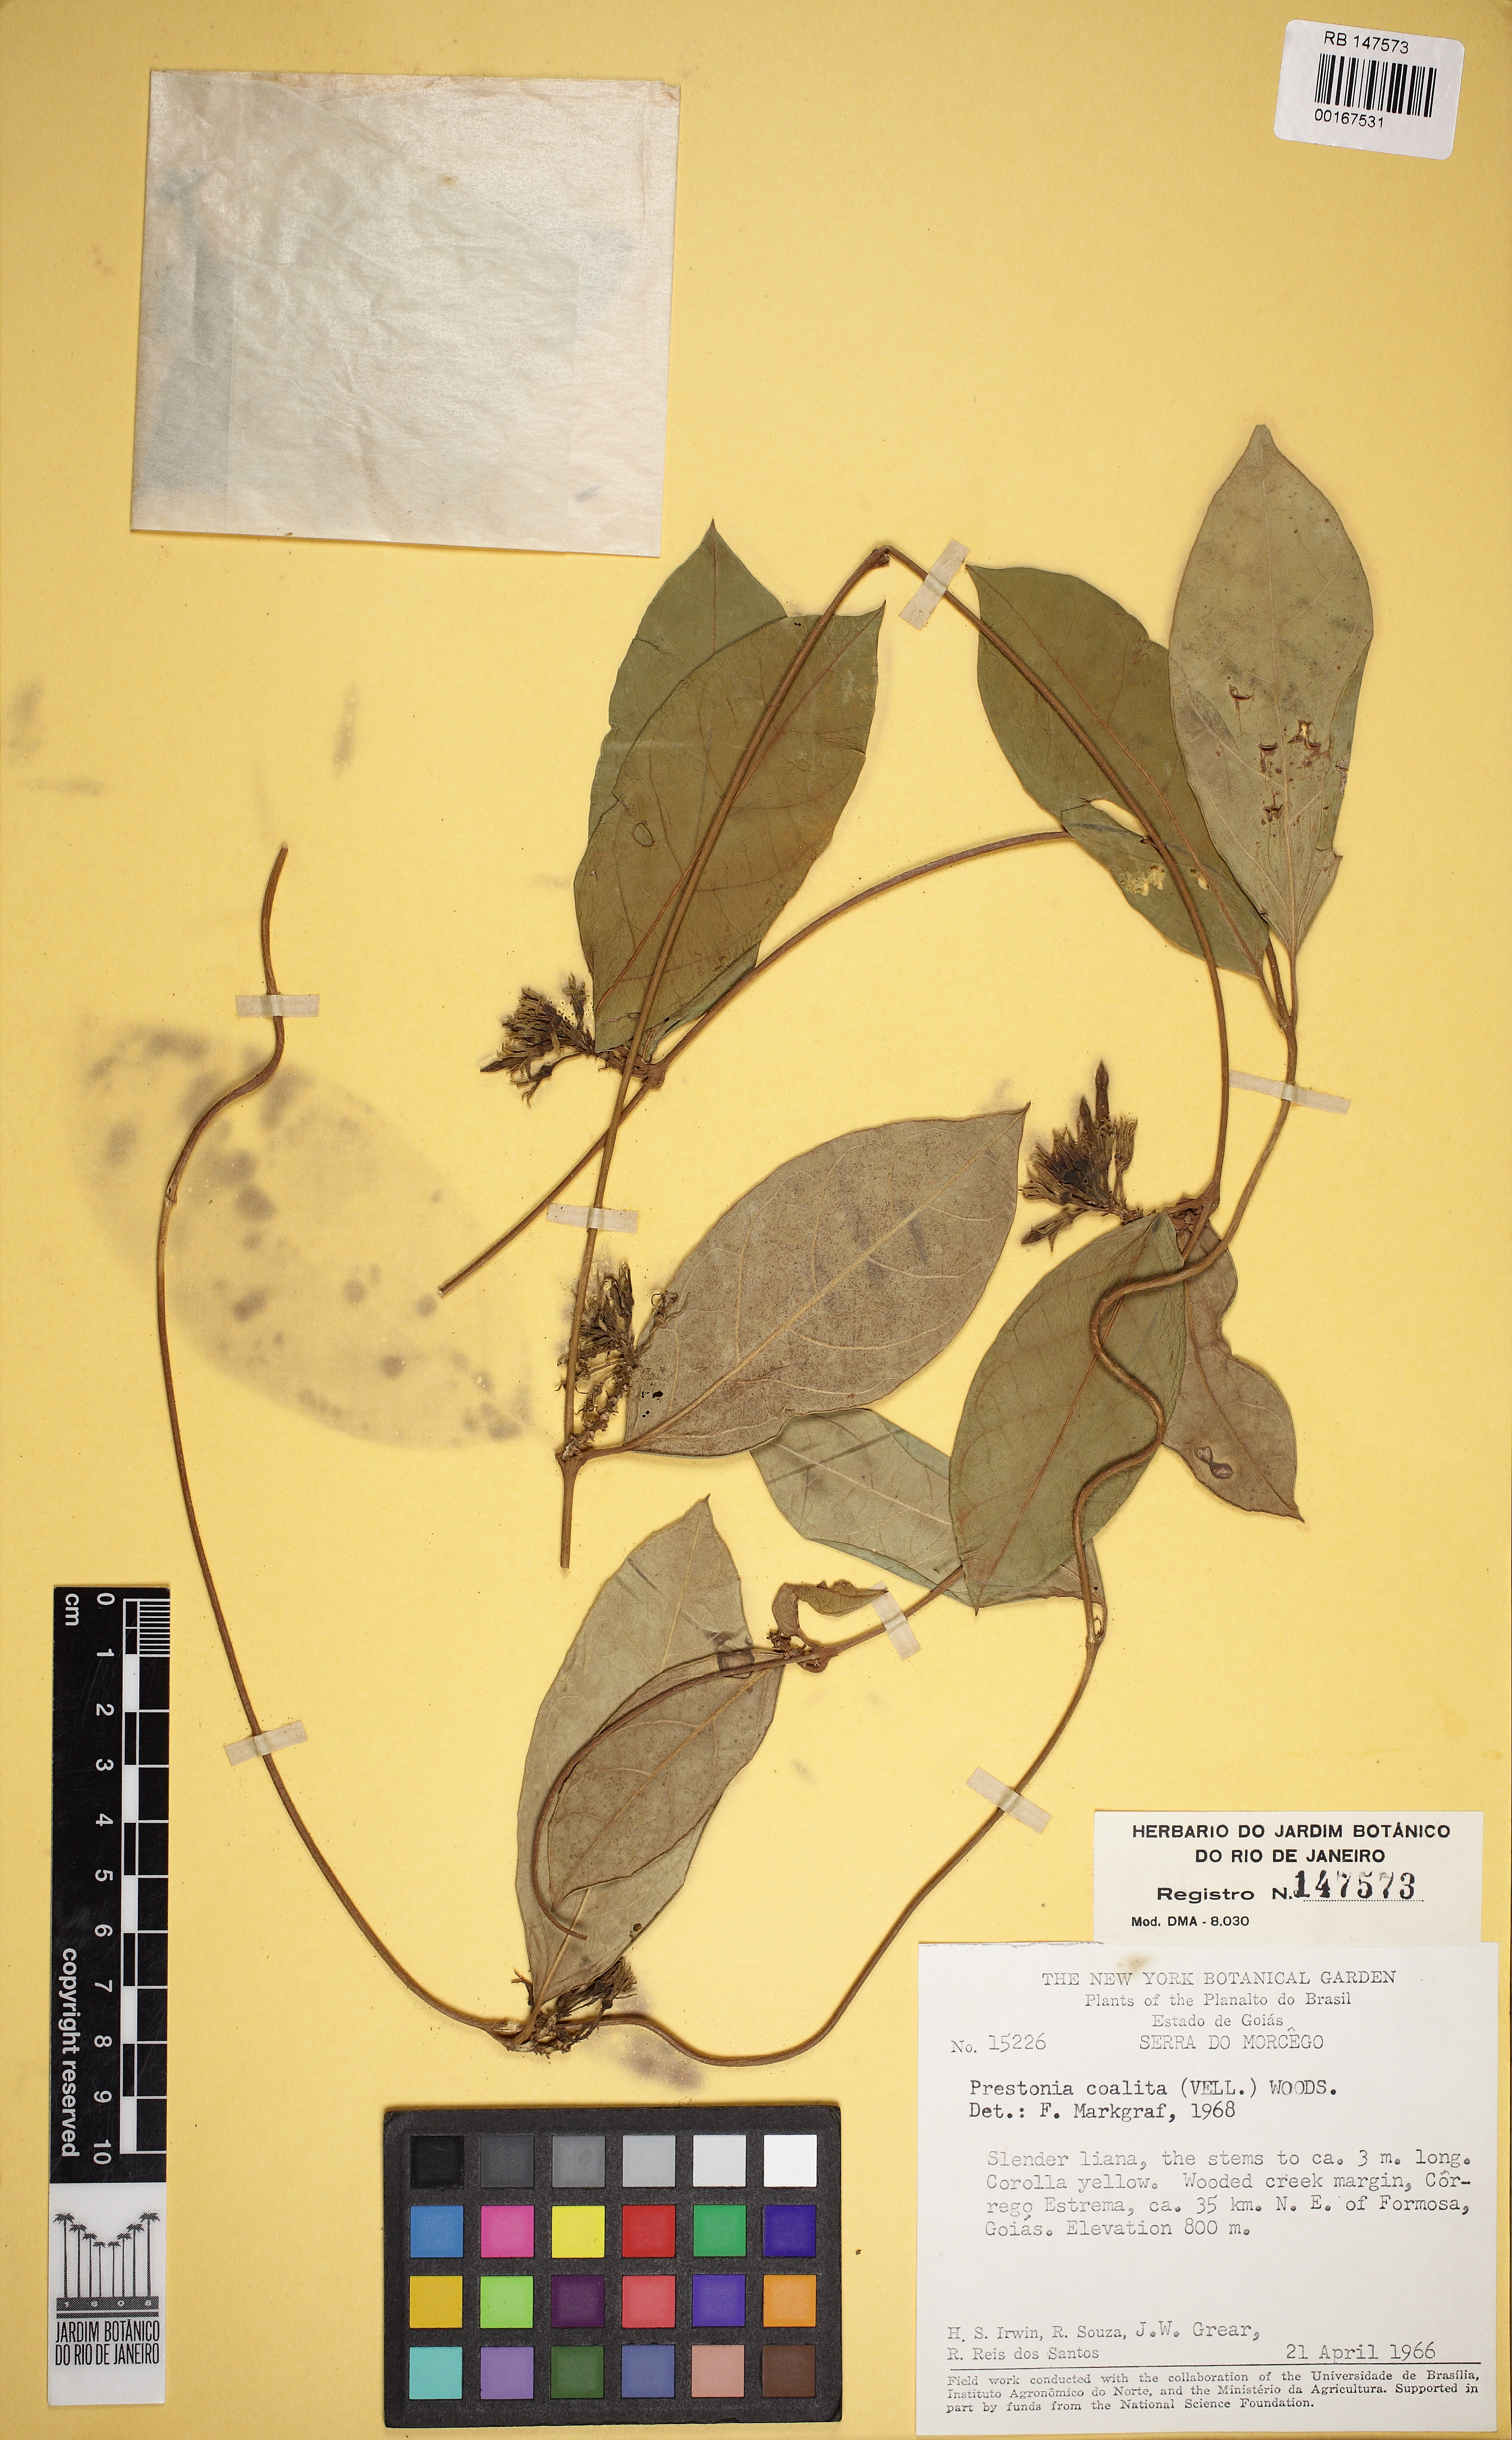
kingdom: Plantae
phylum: Tracheophyta
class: Magnoliopsida
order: Gentianales
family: Apocynaceae
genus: Prestonia
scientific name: Prestonia coalita
